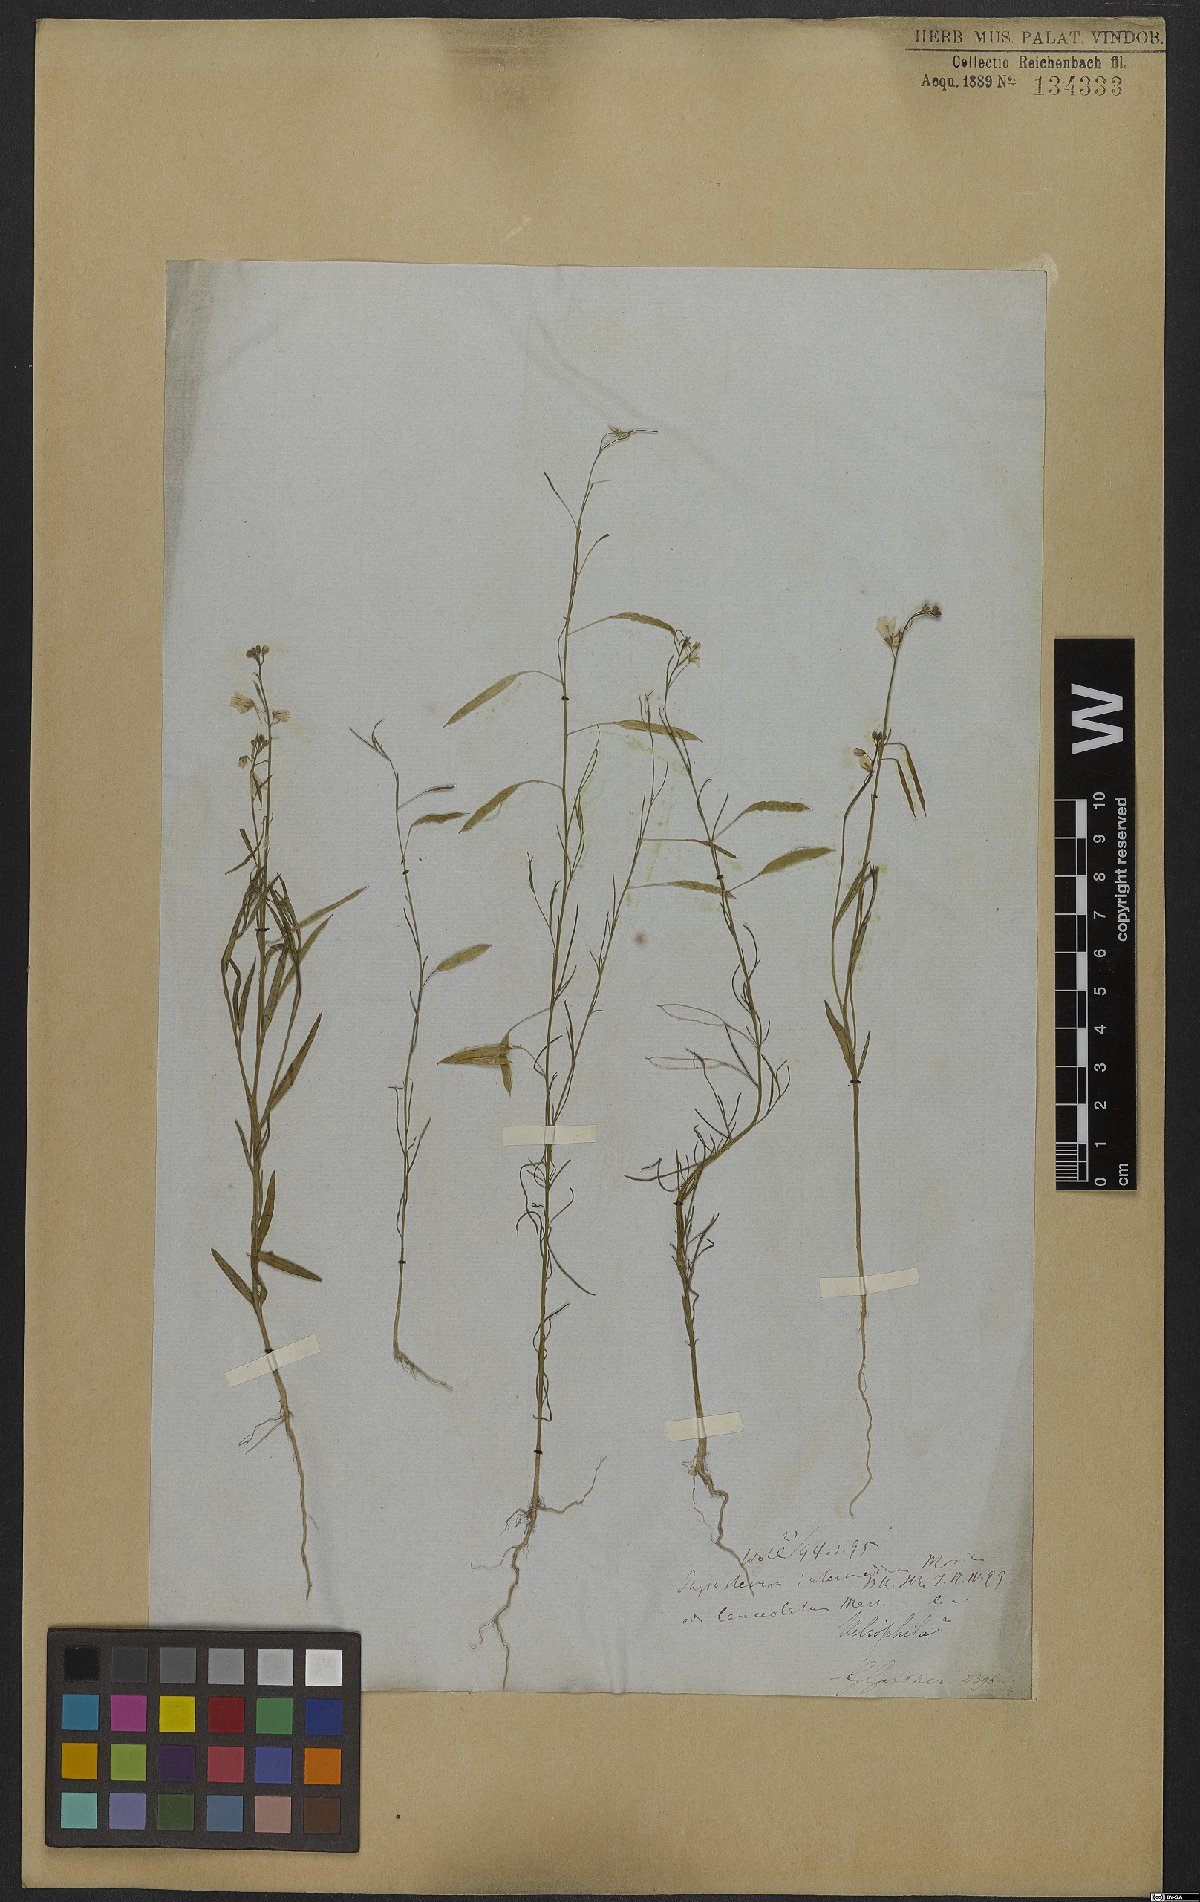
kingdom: Plantae
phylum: Tracheophyta
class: Magnoliopsida
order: Brassicales
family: Cleomaceae
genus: Andinocleome
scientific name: Andinocleome anomala
